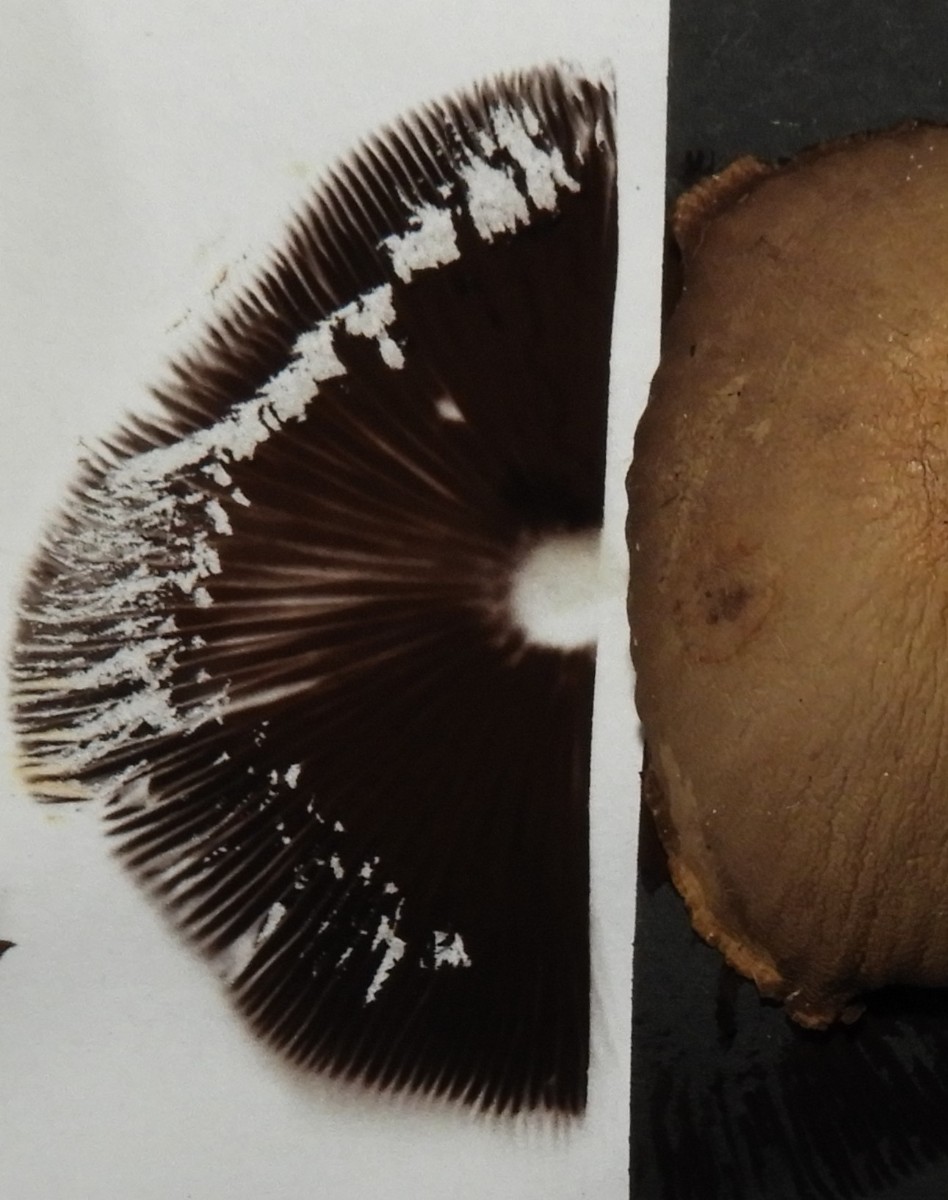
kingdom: Fungi
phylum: Basidiomycota
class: Agaricomycetes
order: Agaricales
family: Psathyrellaceae
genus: Psathyrella
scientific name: Psathyrella
